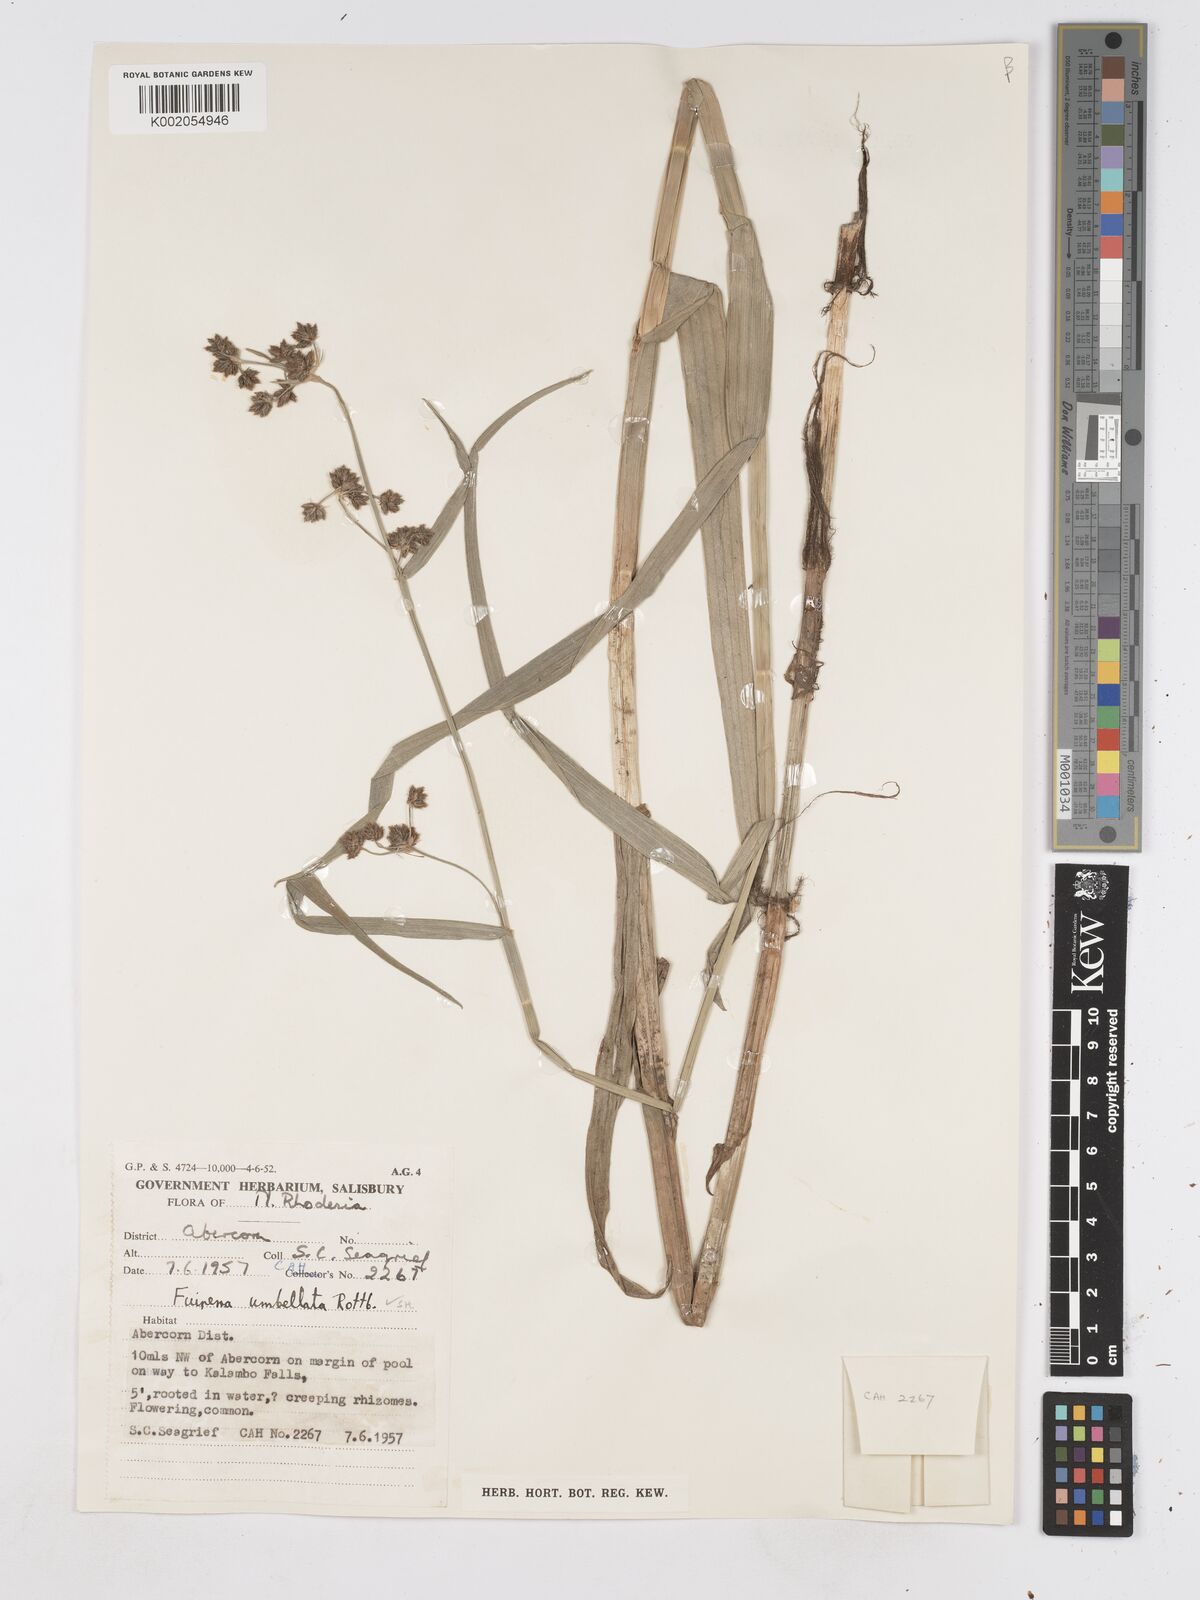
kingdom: Plantae
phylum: Tracheophyta
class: Liliopsida
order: Poales
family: Cyperaceae
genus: Fuirena
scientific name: Fuirena umbellata
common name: Yefen
